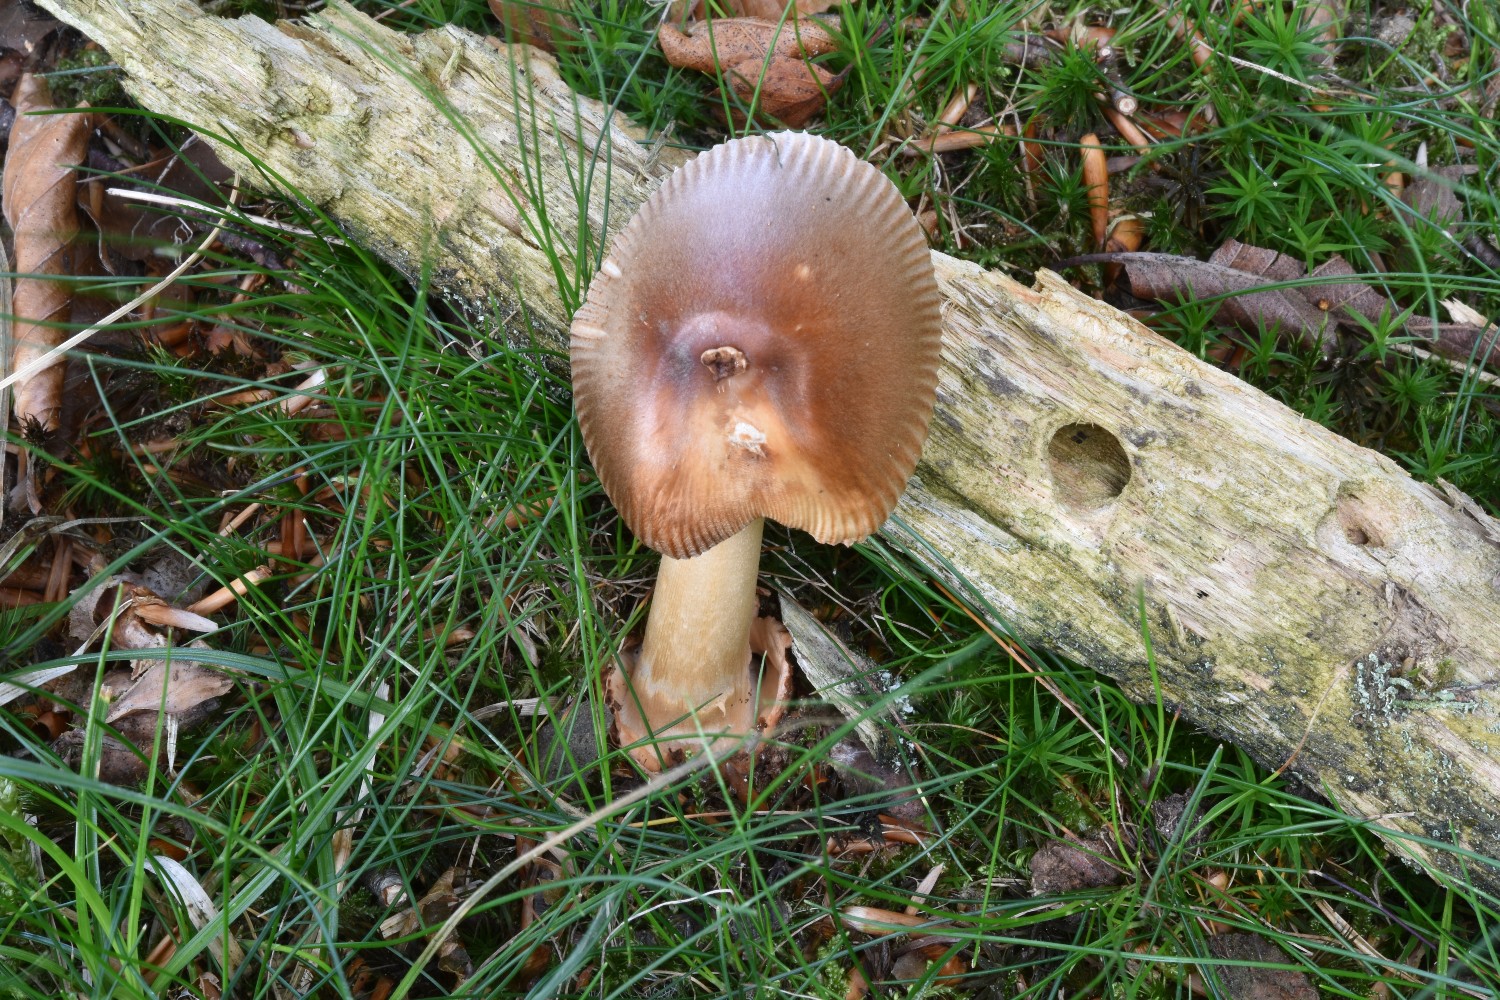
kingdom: Fungi
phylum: Basidiomycota
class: Agaricomycetes
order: Agaricales
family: Amanitaceae
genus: Amanita
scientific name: Amanita fulva
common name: brun kam-fluesvamp
